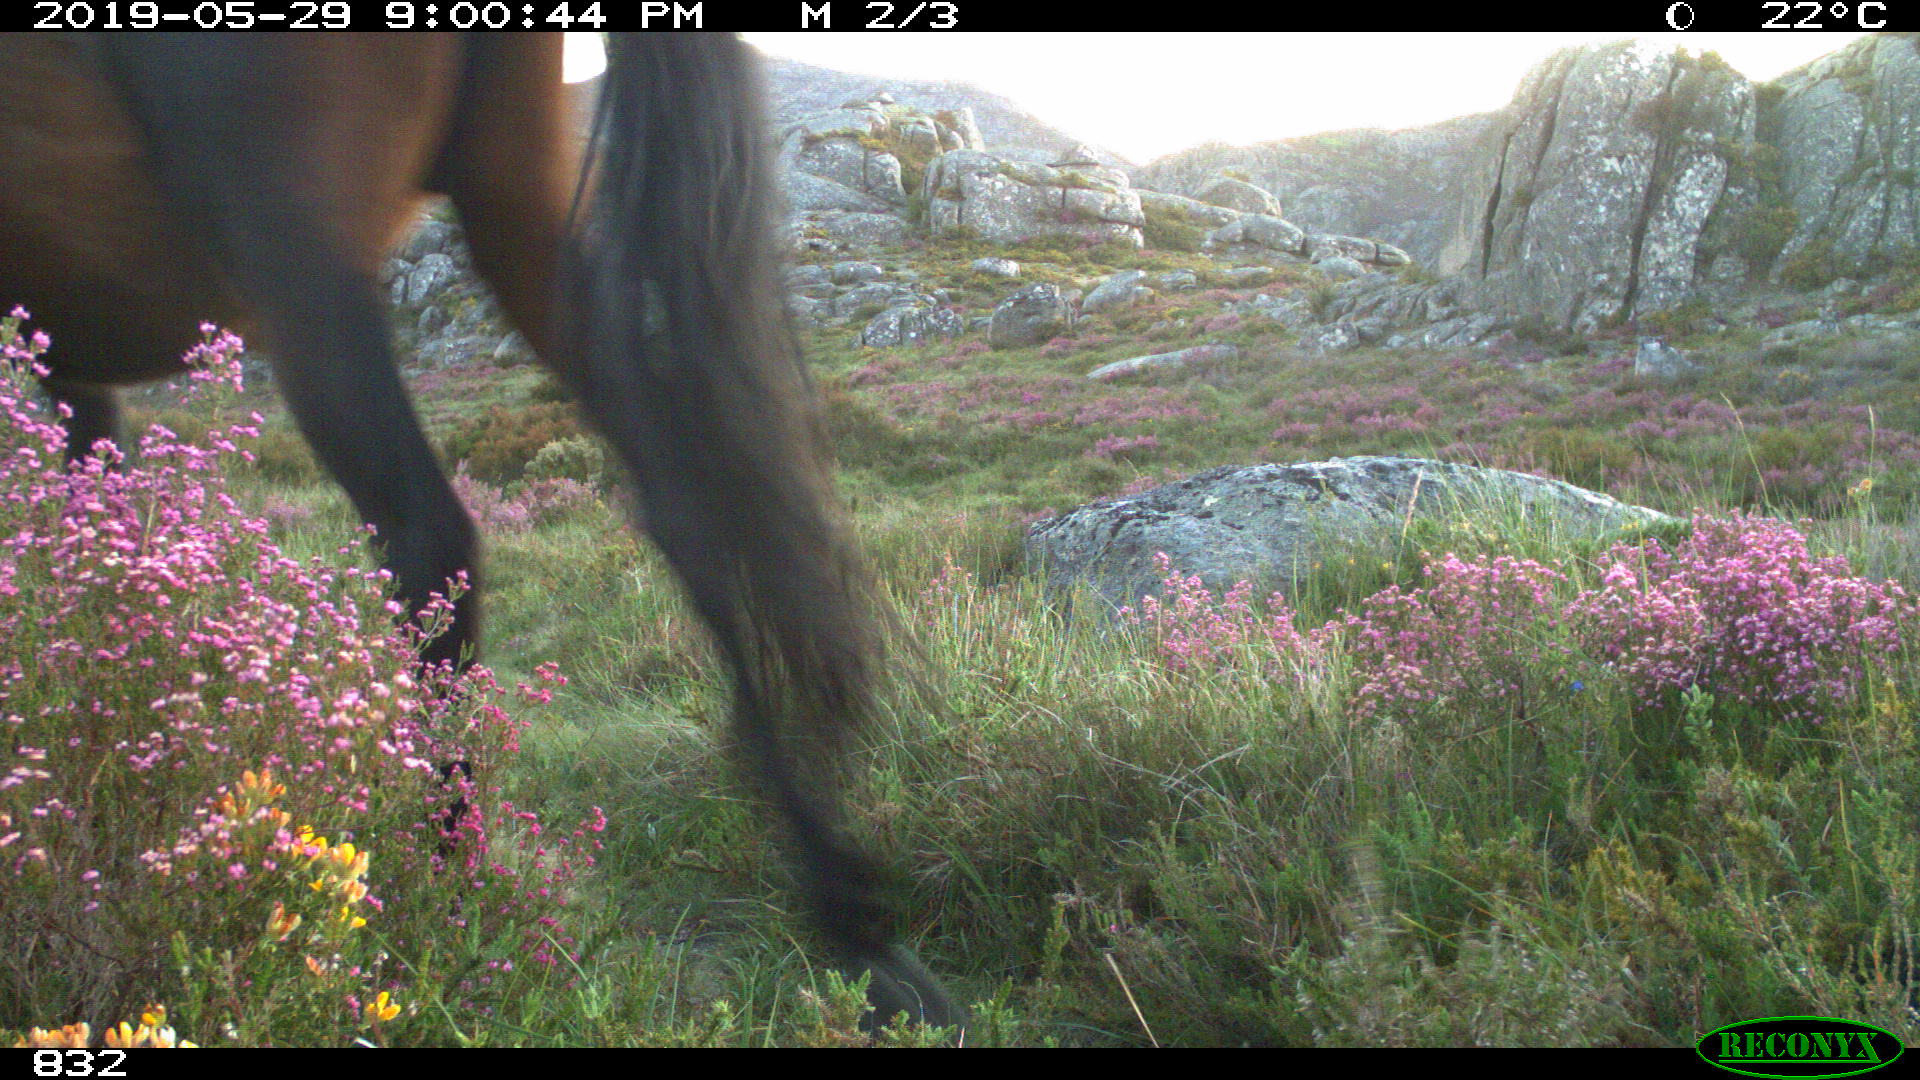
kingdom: Animalia
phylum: Chordata
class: Mammalia
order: Perissodactyla
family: Equidae
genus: Equus
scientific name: Equus caballus
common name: Horse
